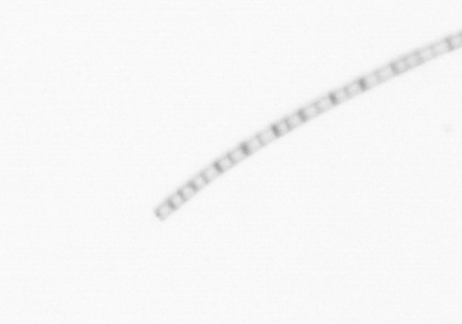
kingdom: Chromista
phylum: Ochrophyta
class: Bacillariophyceae
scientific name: Bacillariophyceae
